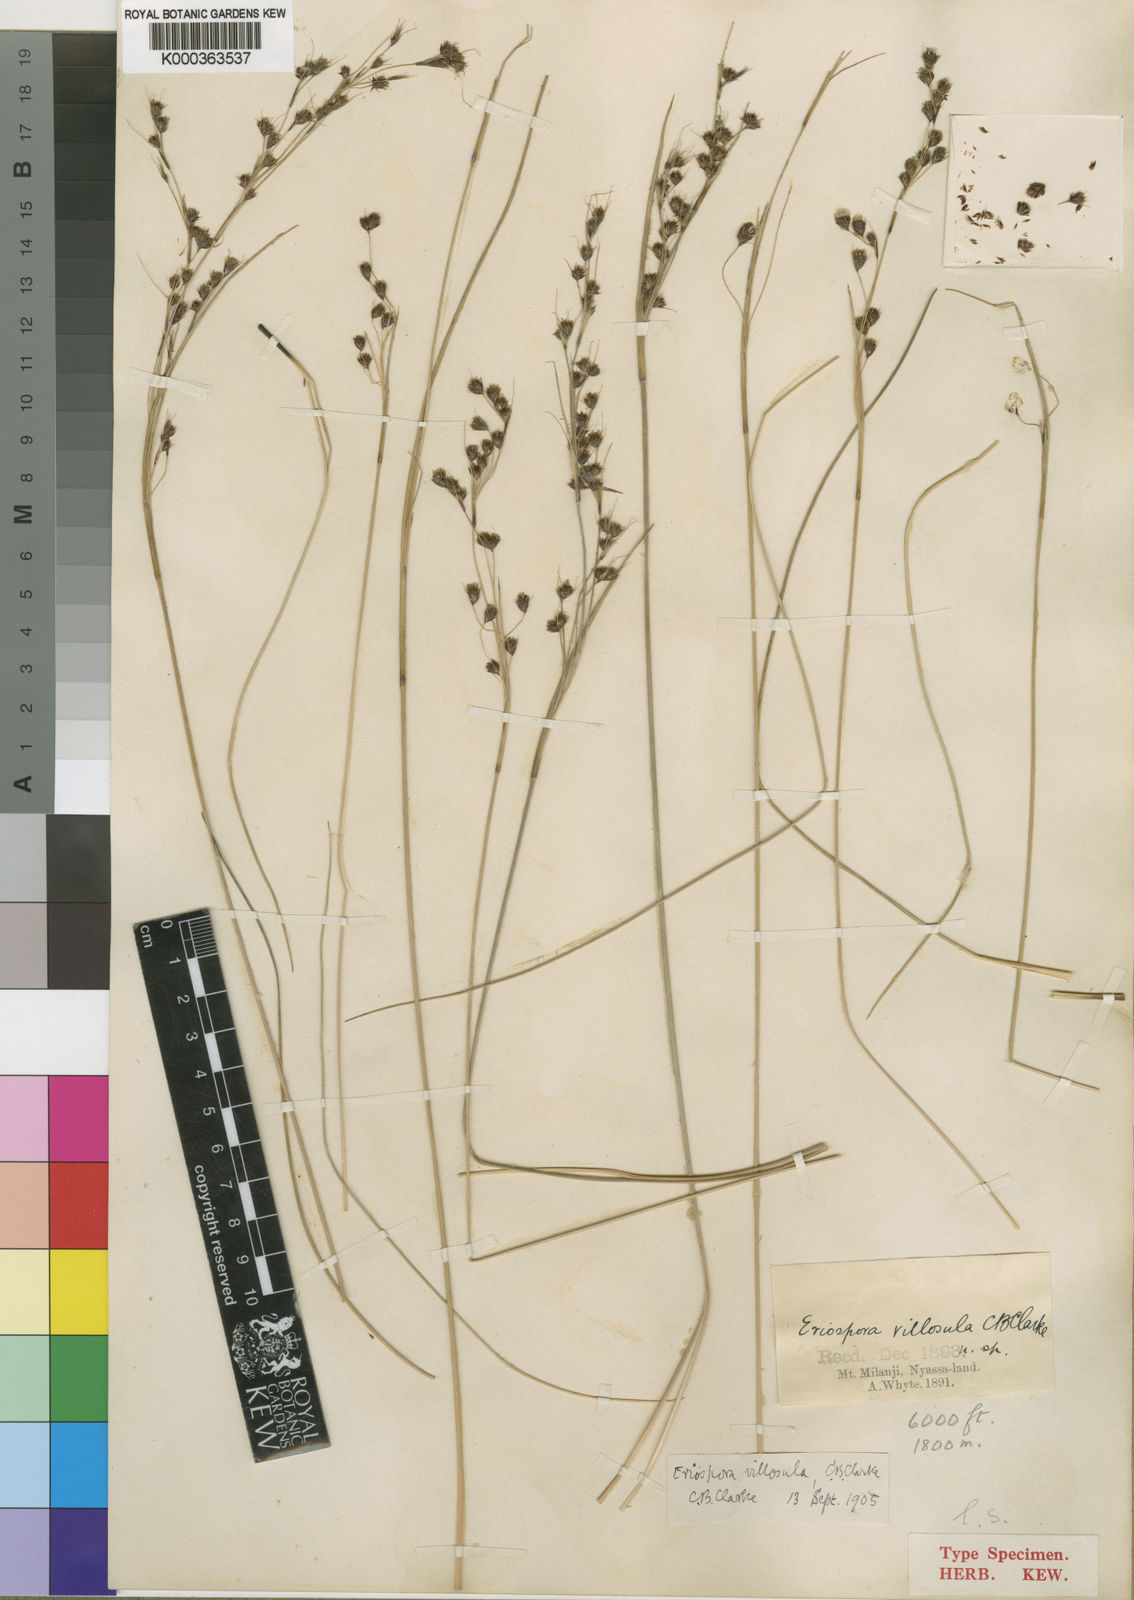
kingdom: Plantae
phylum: Tracheophyta
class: Liliopsida
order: Poales
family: Cyperaceae
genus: Coleochloa
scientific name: Coleochloa setifera
